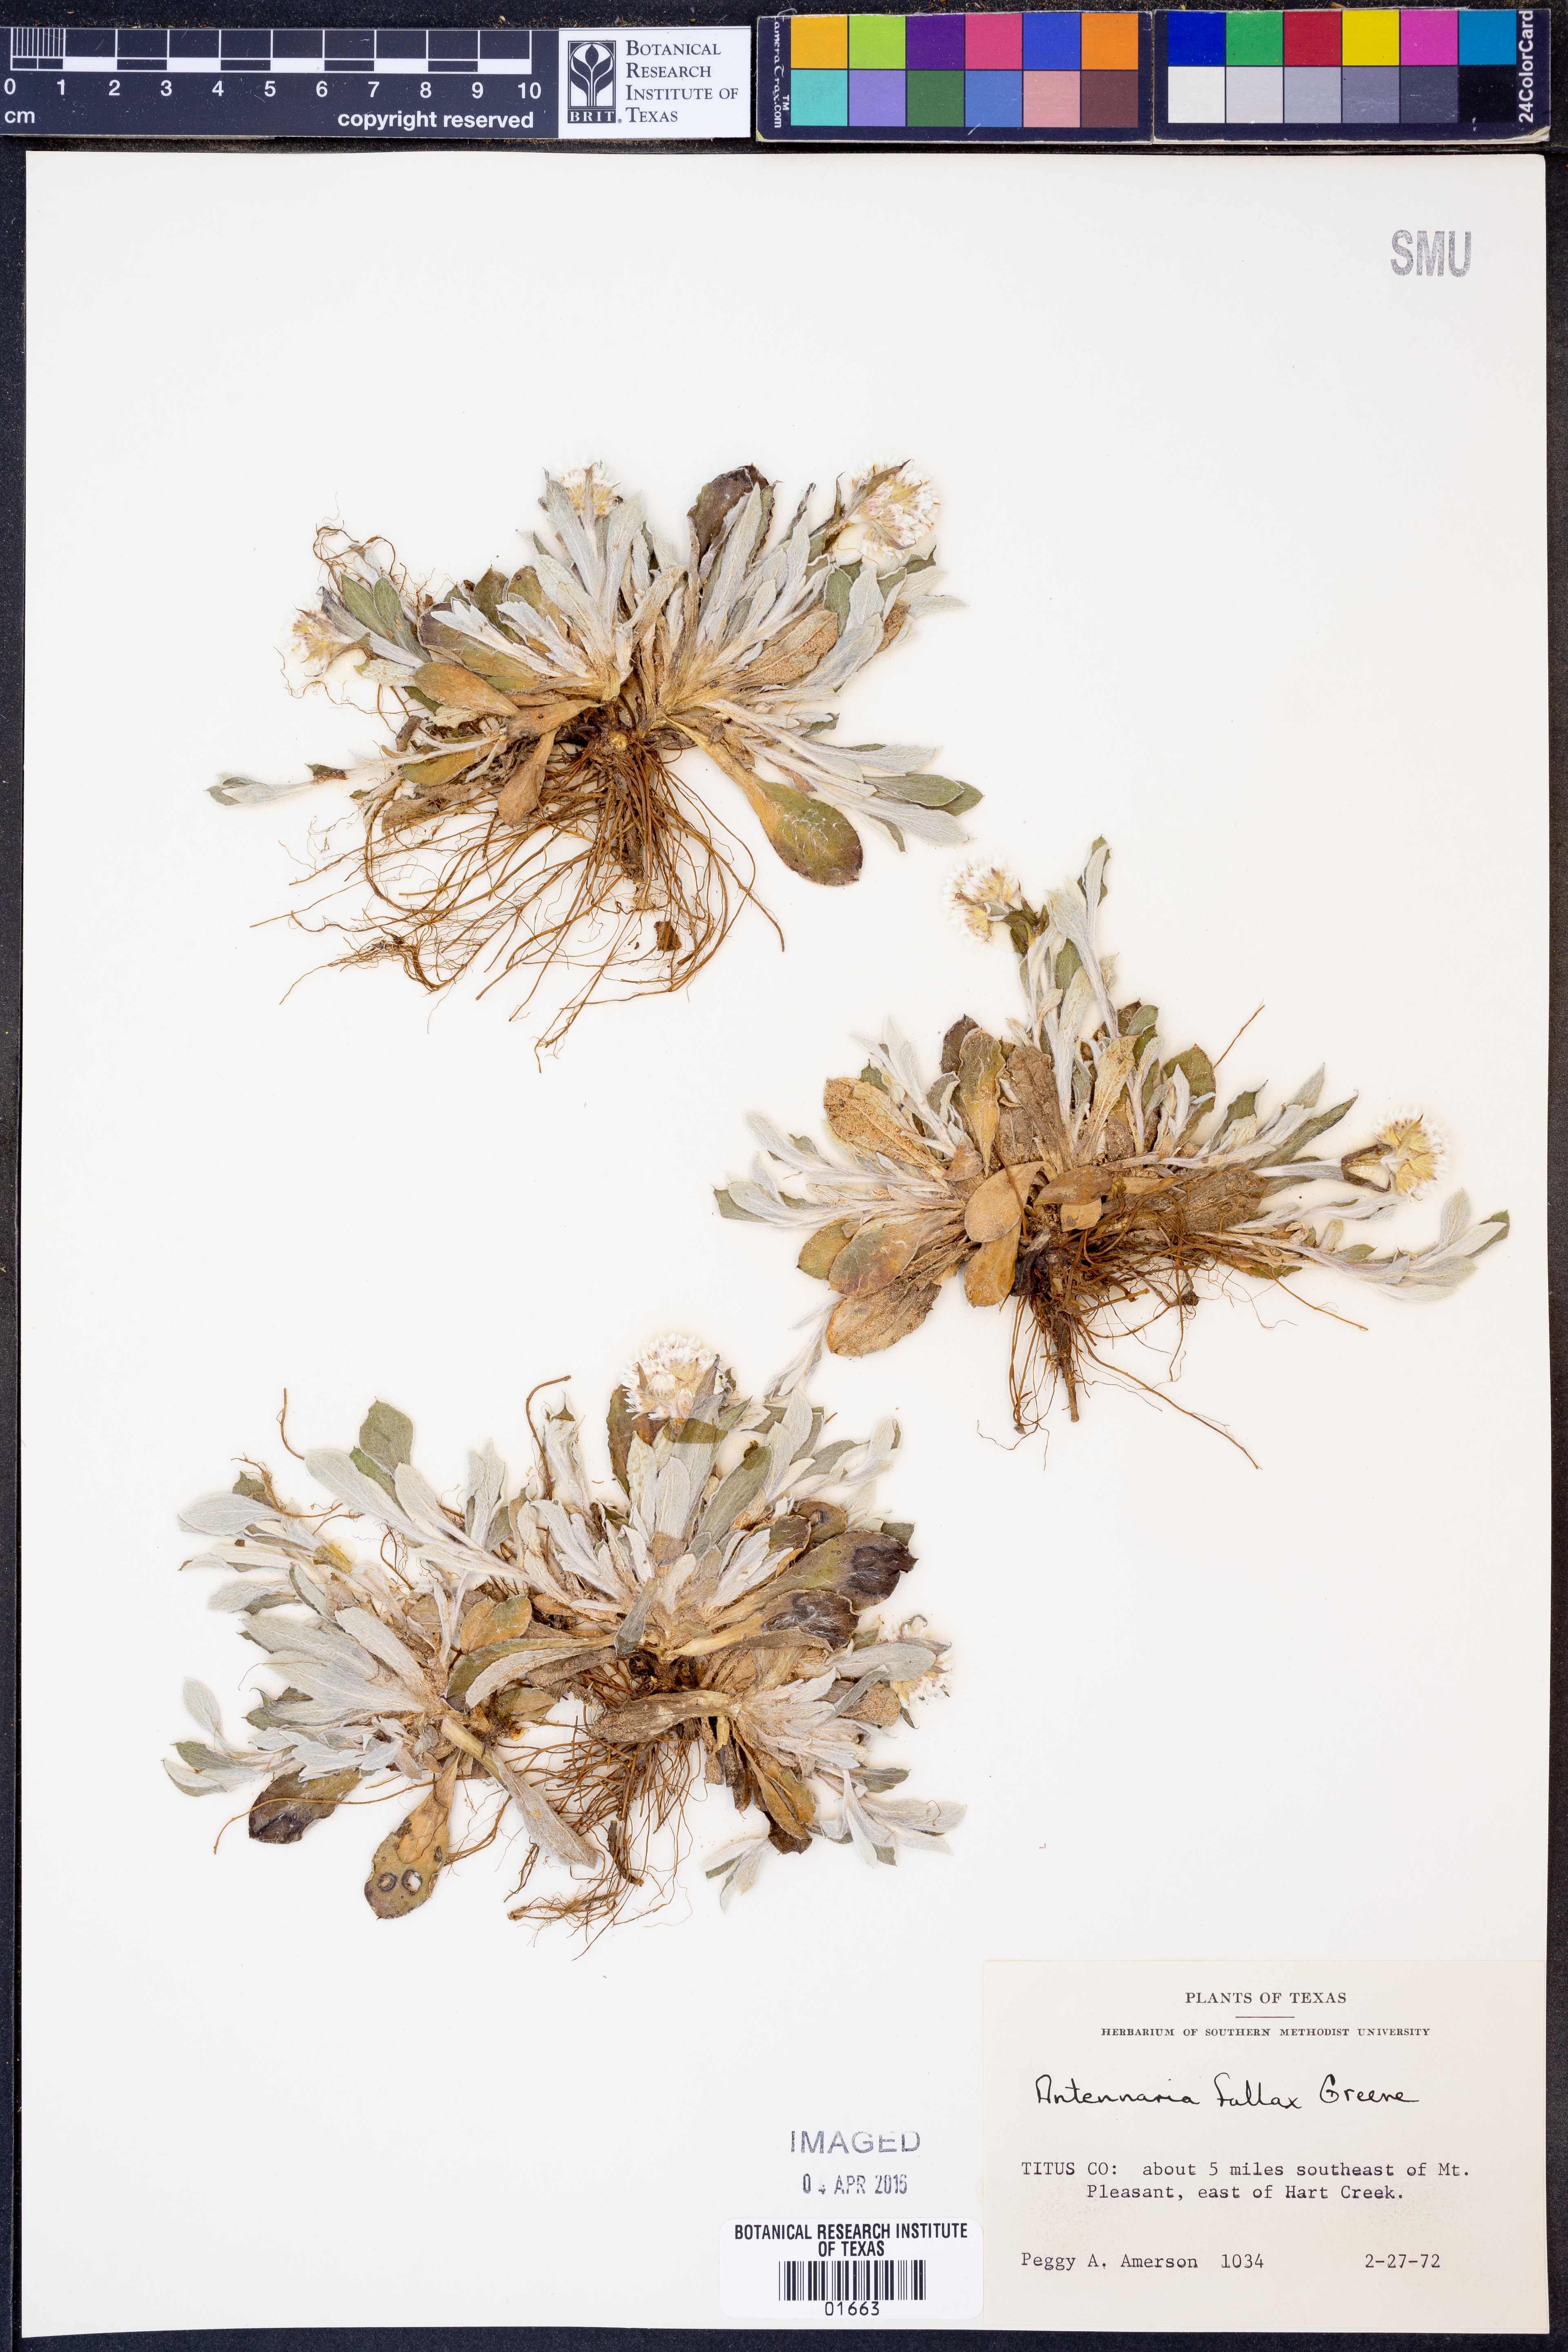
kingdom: Plantae
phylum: Tracheophyta
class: Magnoliopsida
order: Asterales
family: Asteraceae
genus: Antennaria
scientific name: Antennaria parlinii
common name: Parlin's pussytoes
